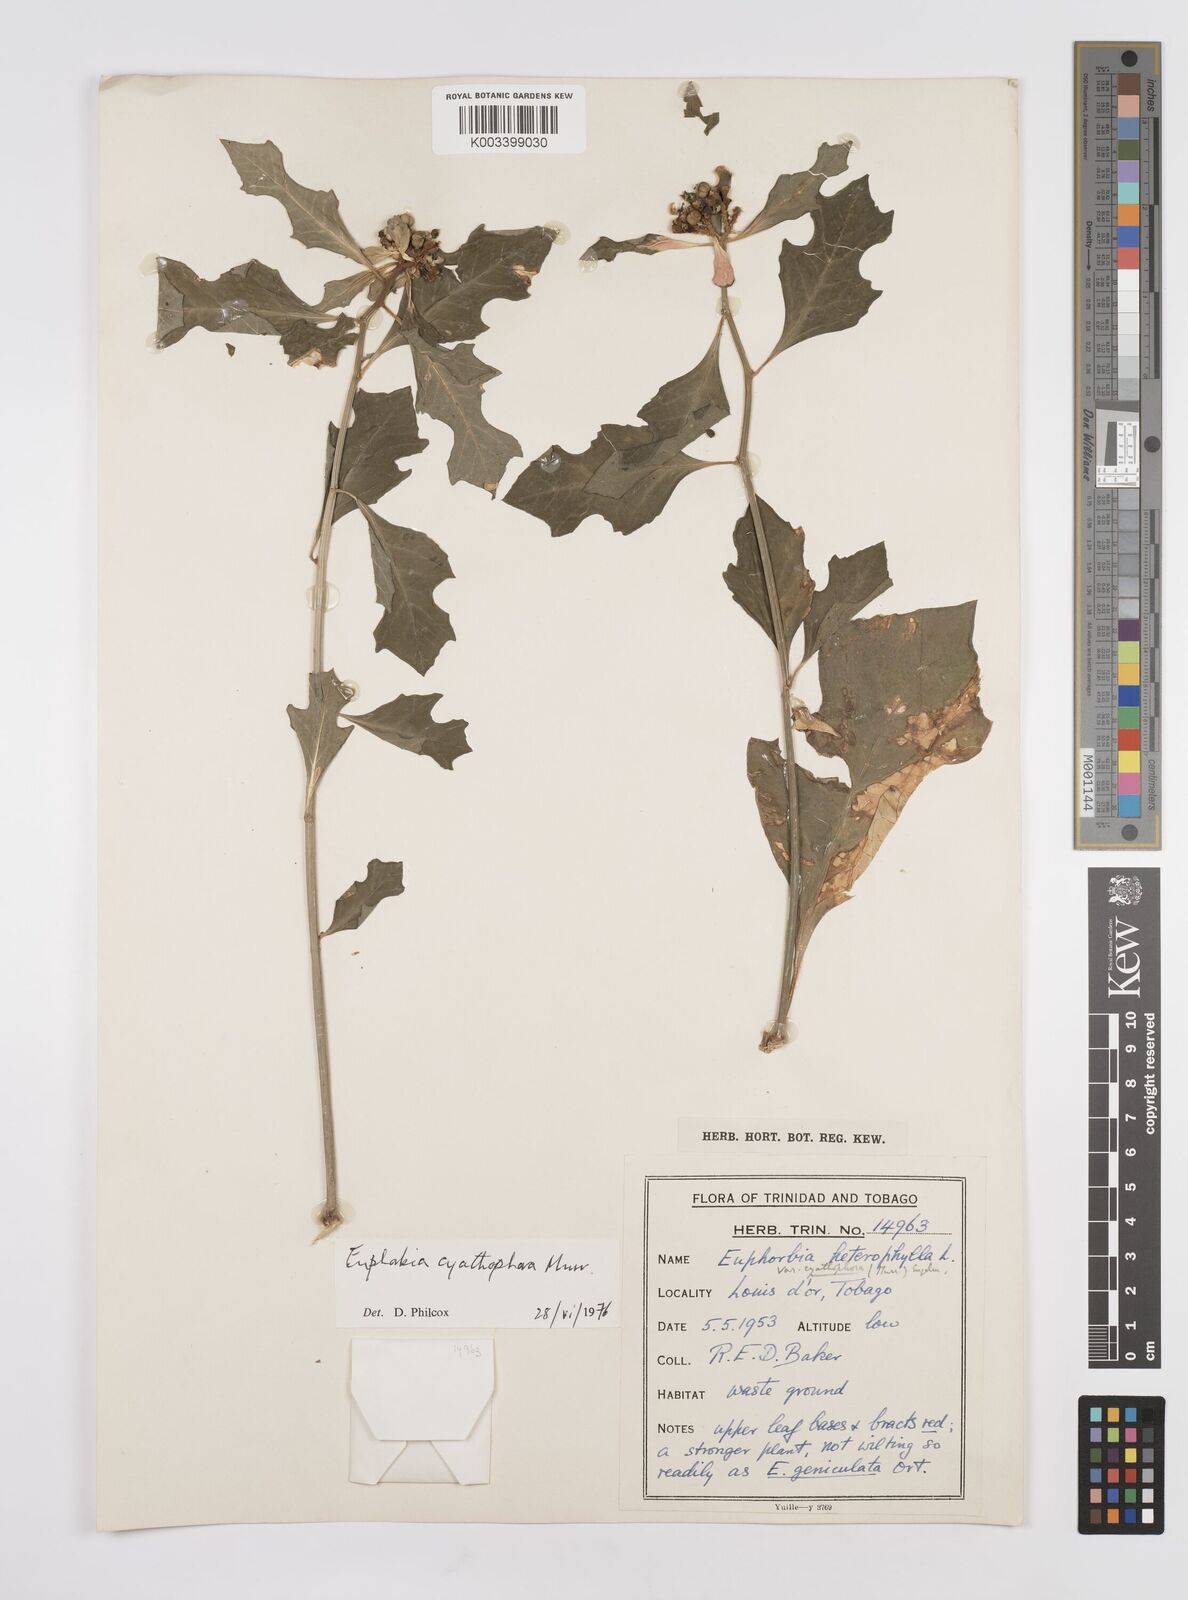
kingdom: Plantae
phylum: Tracheophyta
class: Magnoliopsida
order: Malpighiales
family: Euphorbiaceae
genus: Euphorbia
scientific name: Euphorbia heterophylla
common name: Mexican fireplant
